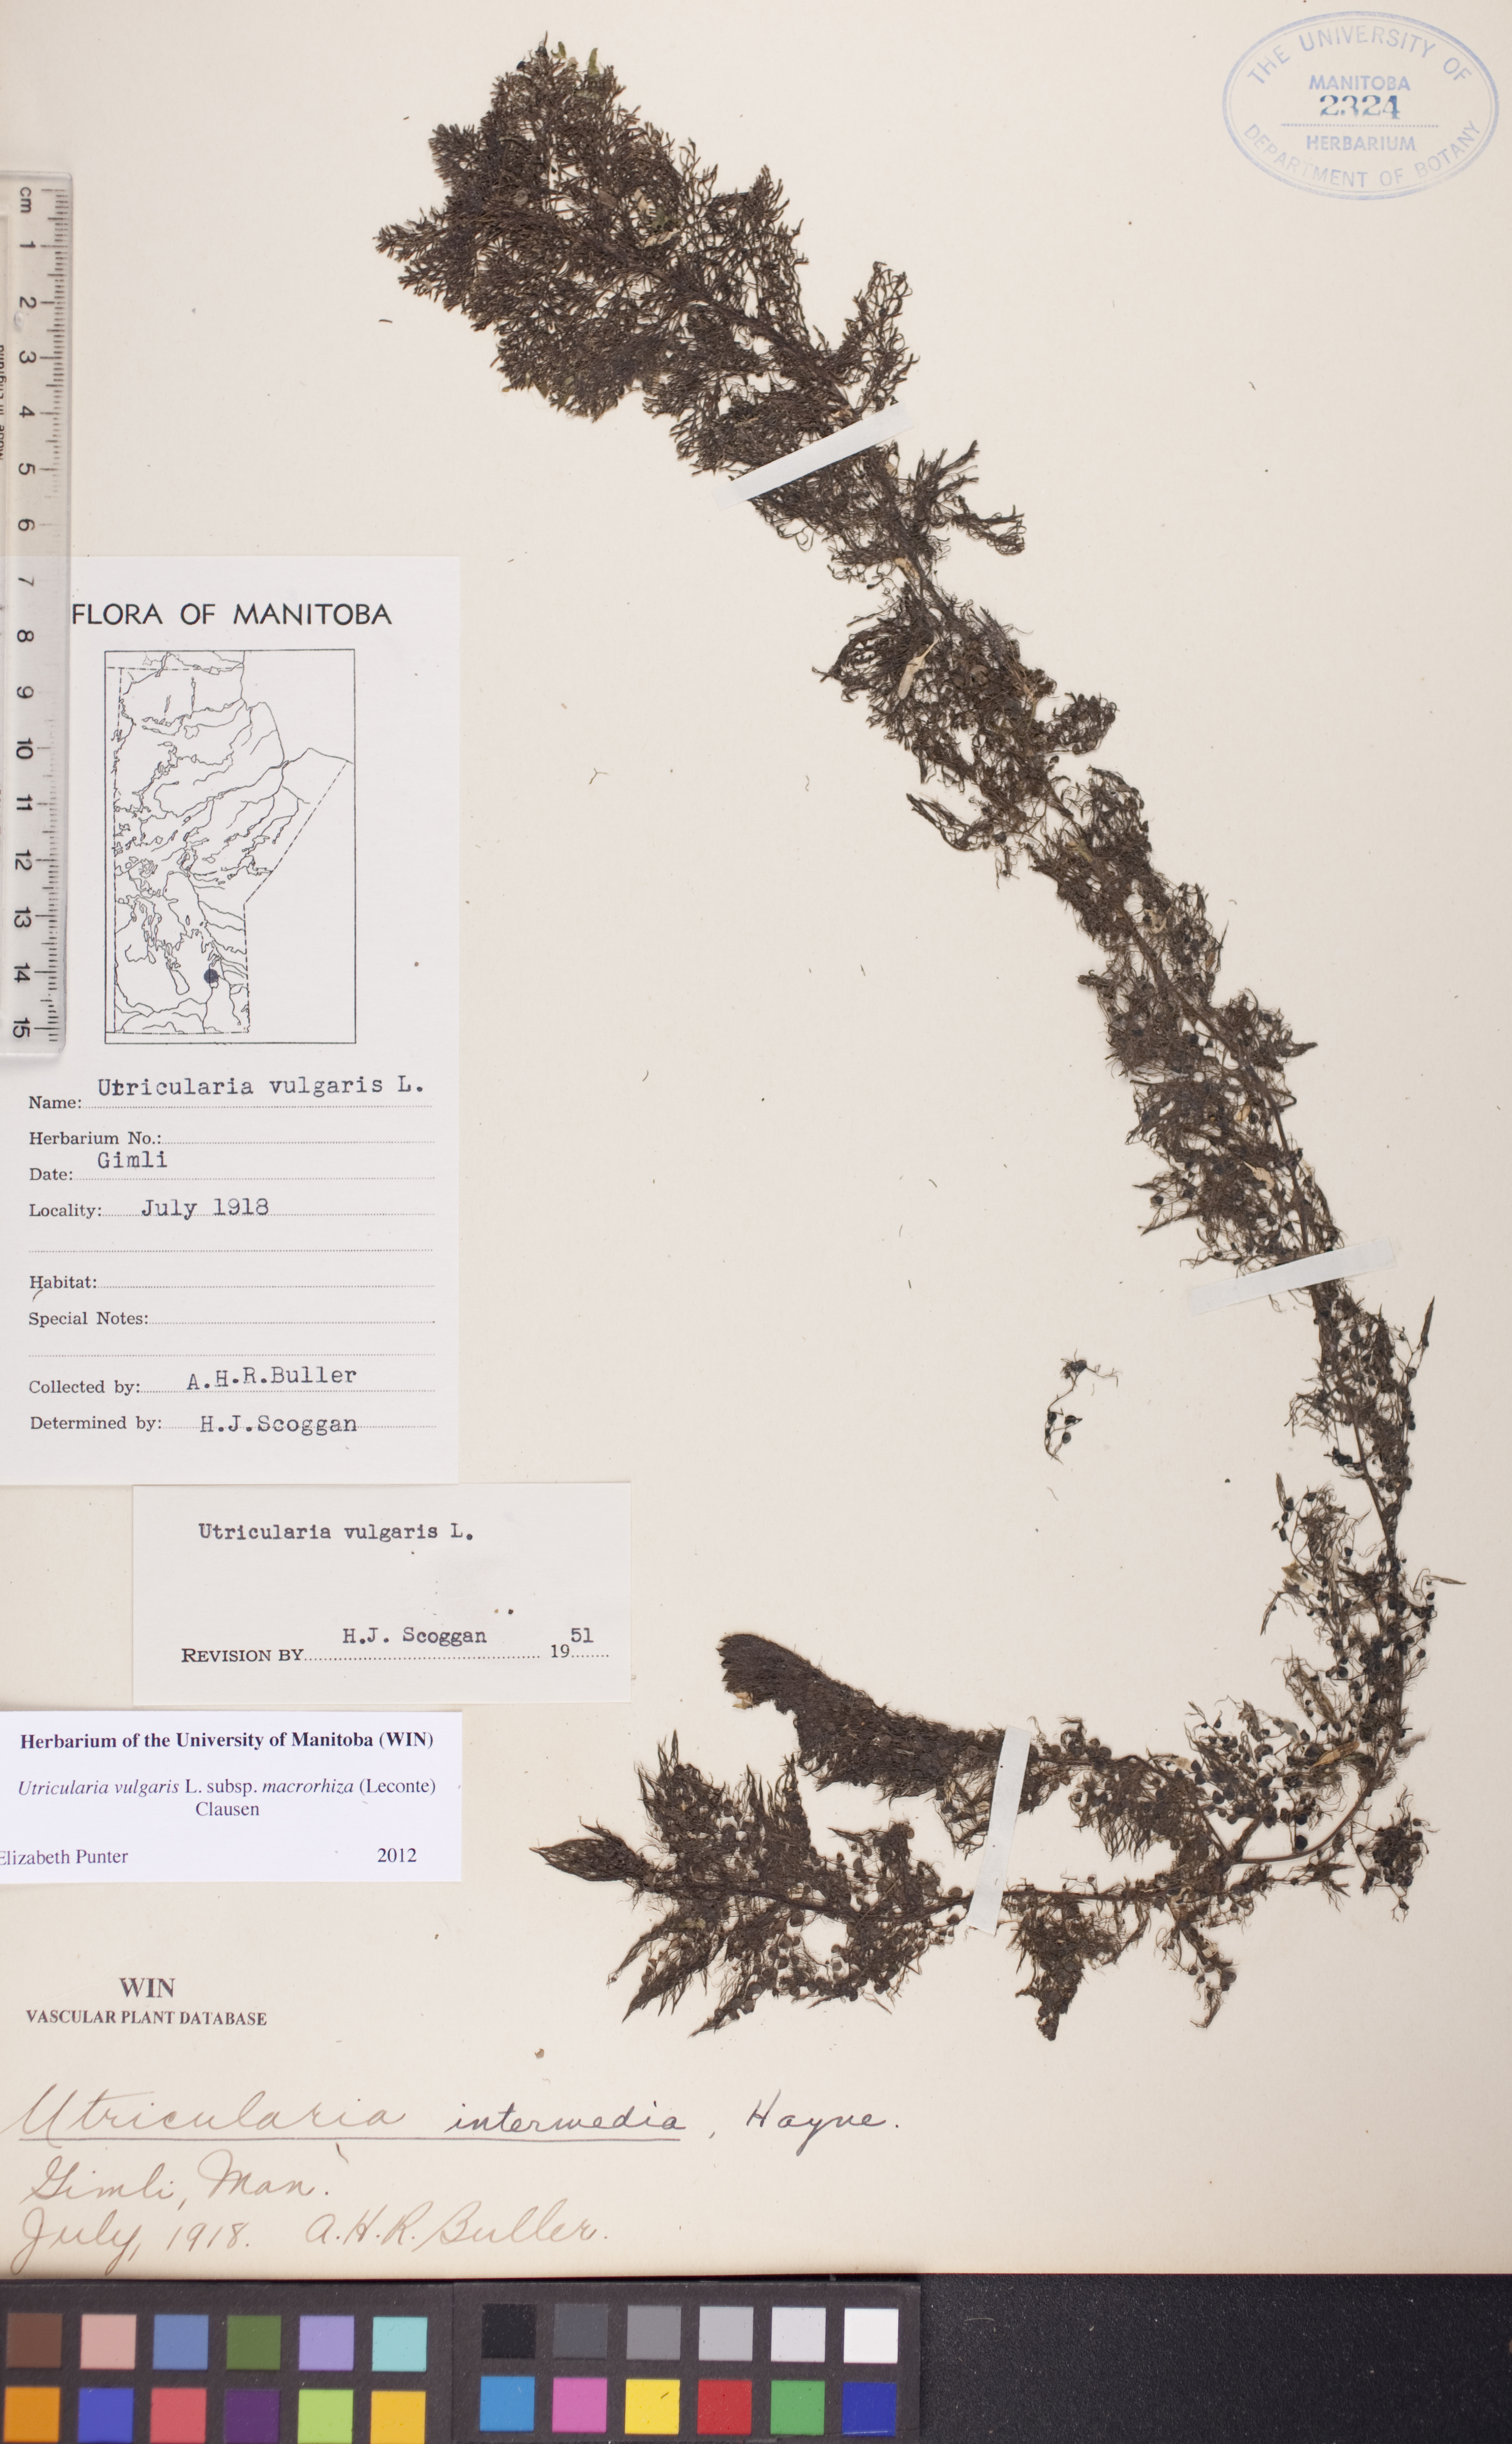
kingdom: Plantae
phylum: Tracheophyta
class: Magnoliopsida
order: Lamiales
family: Lentibulariaceae
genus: Utricularia
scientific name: Utricularia macrorhiza
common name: Common bladderwort
